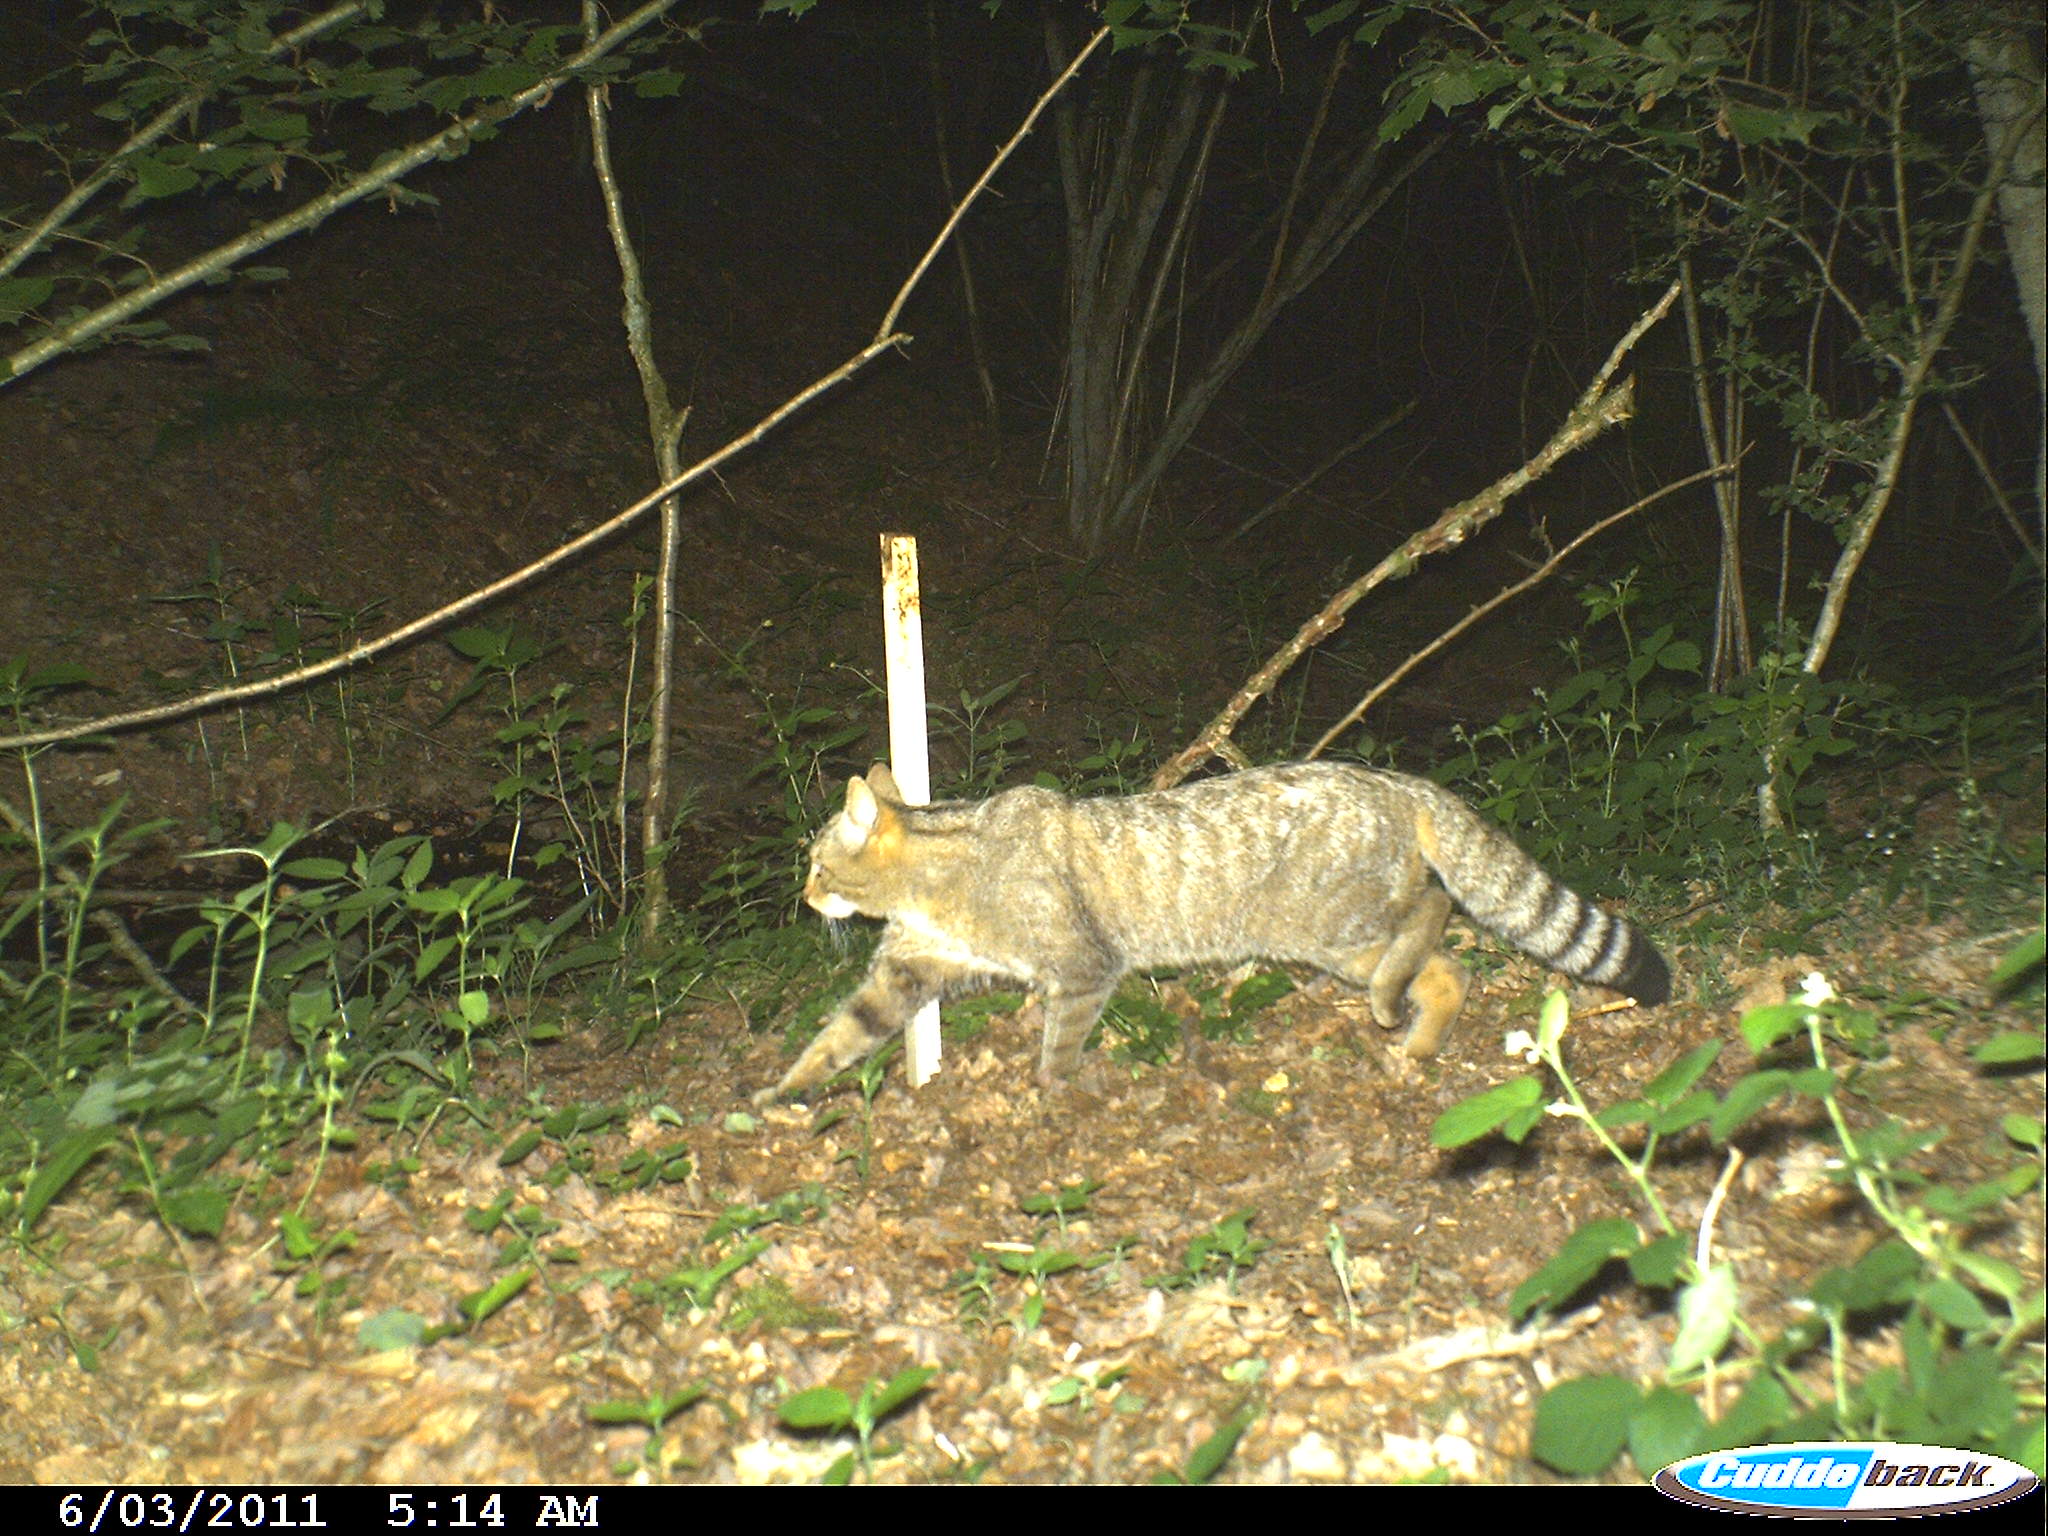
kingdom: Animalia
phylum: Chordata
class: Mammalia
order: Carnivora
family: Felidae
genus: Felis
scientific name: Felis silvestris
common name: Wildcat
